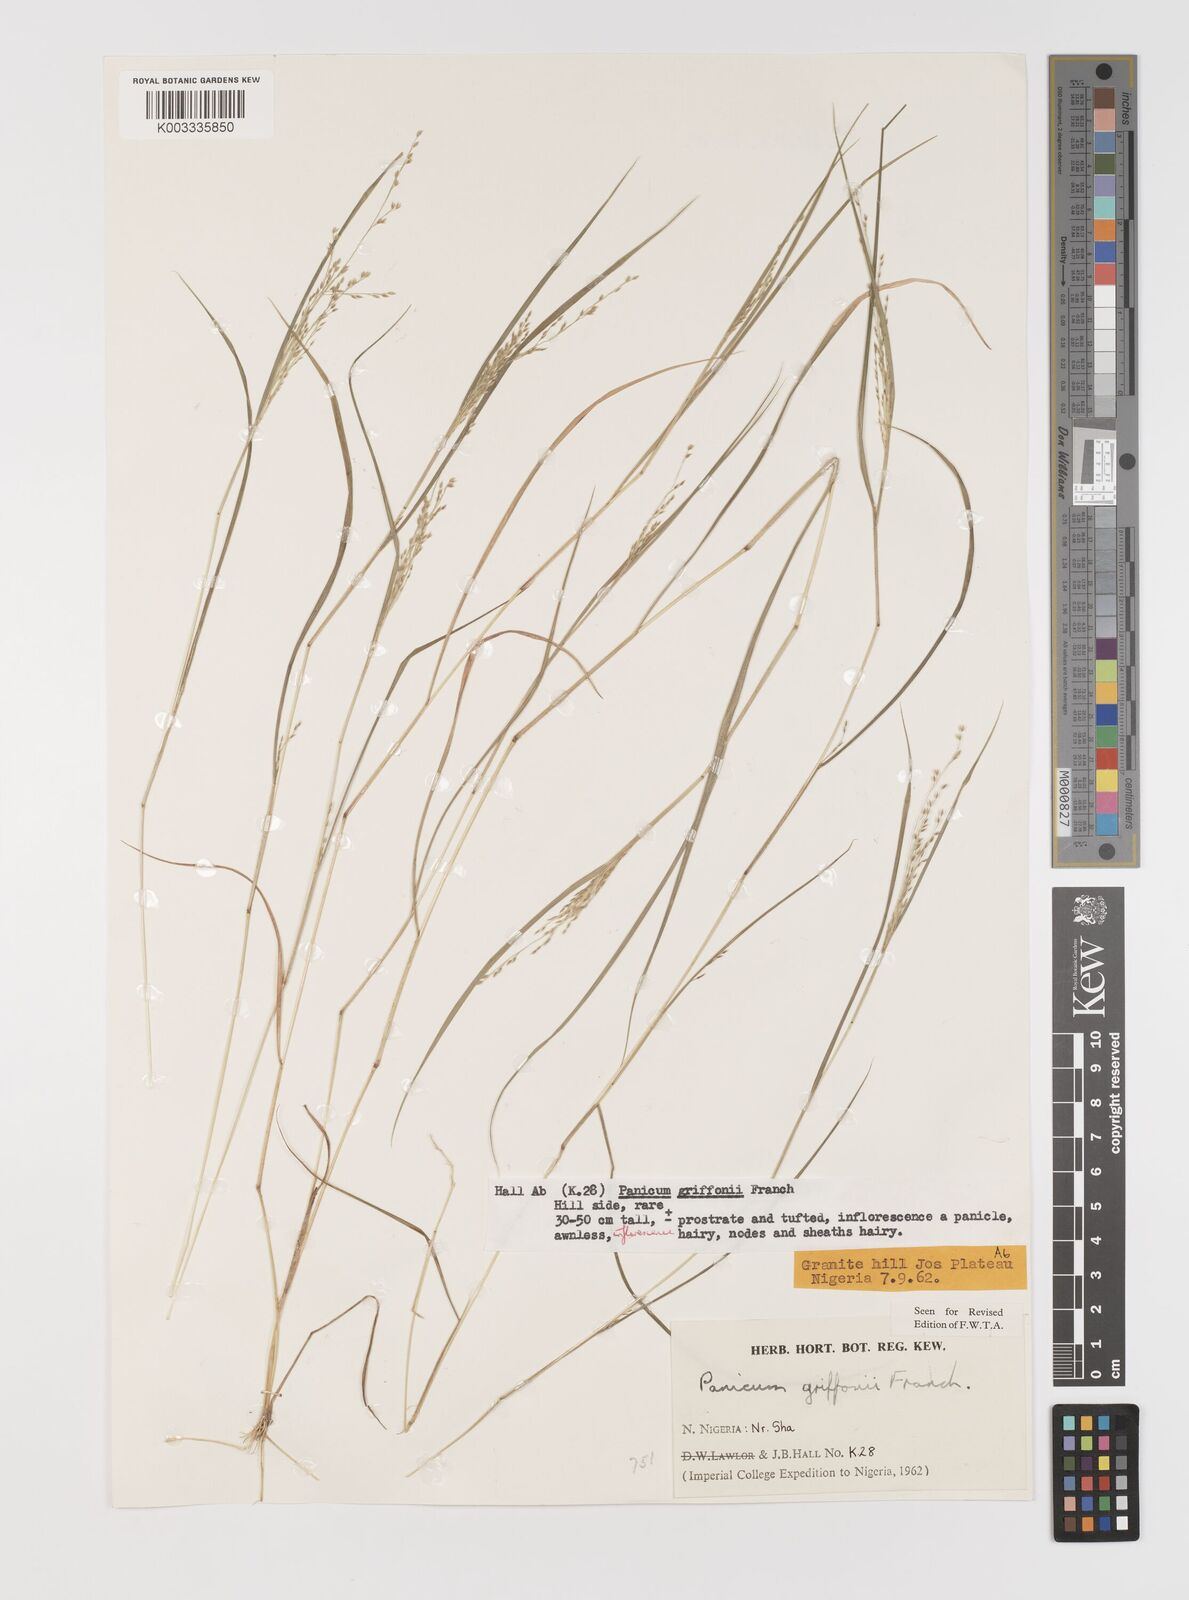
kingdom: Plantae
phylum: Tracheophyta
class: Liliopsida
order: Poales
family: Poaceae
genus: Panicum
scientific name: Panicum griffonii
